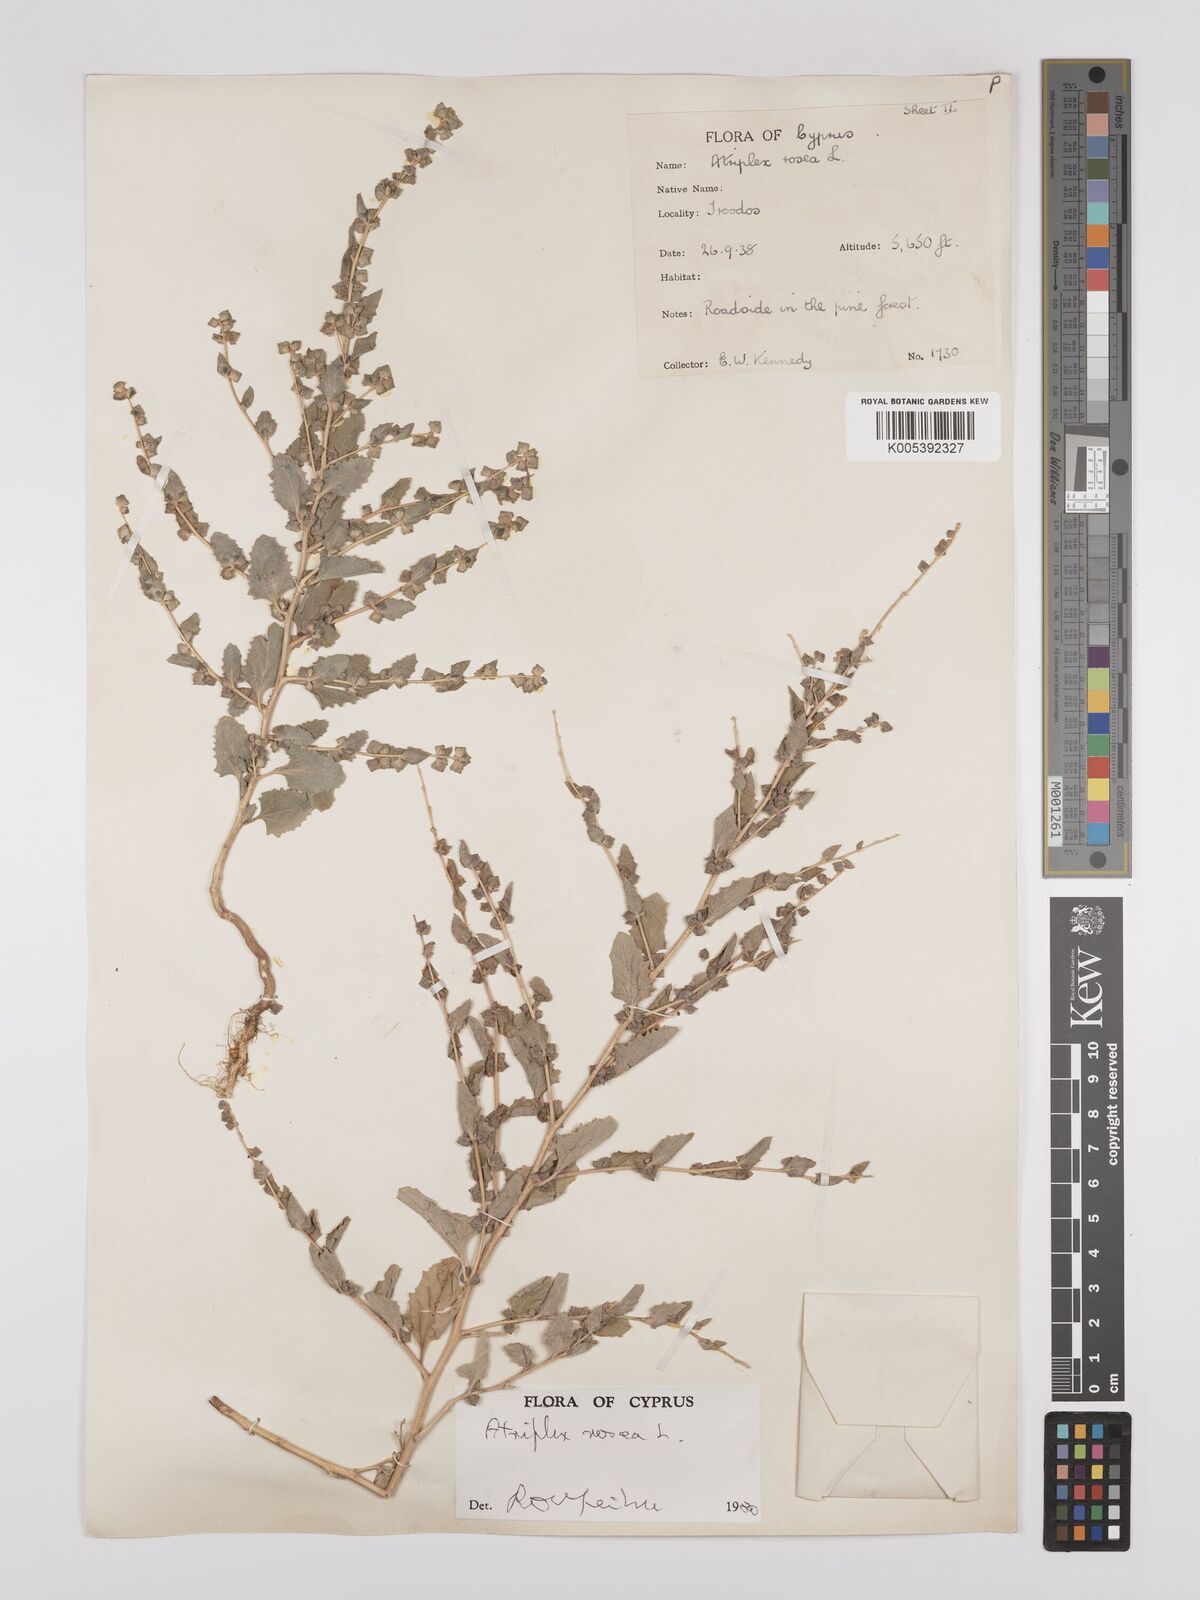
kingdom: Plantae
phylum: Tracheophyta
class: Magnoliopsida
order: Caryophyllales
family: Amaranthaceae
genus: Atriplex
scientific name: Atriplex
